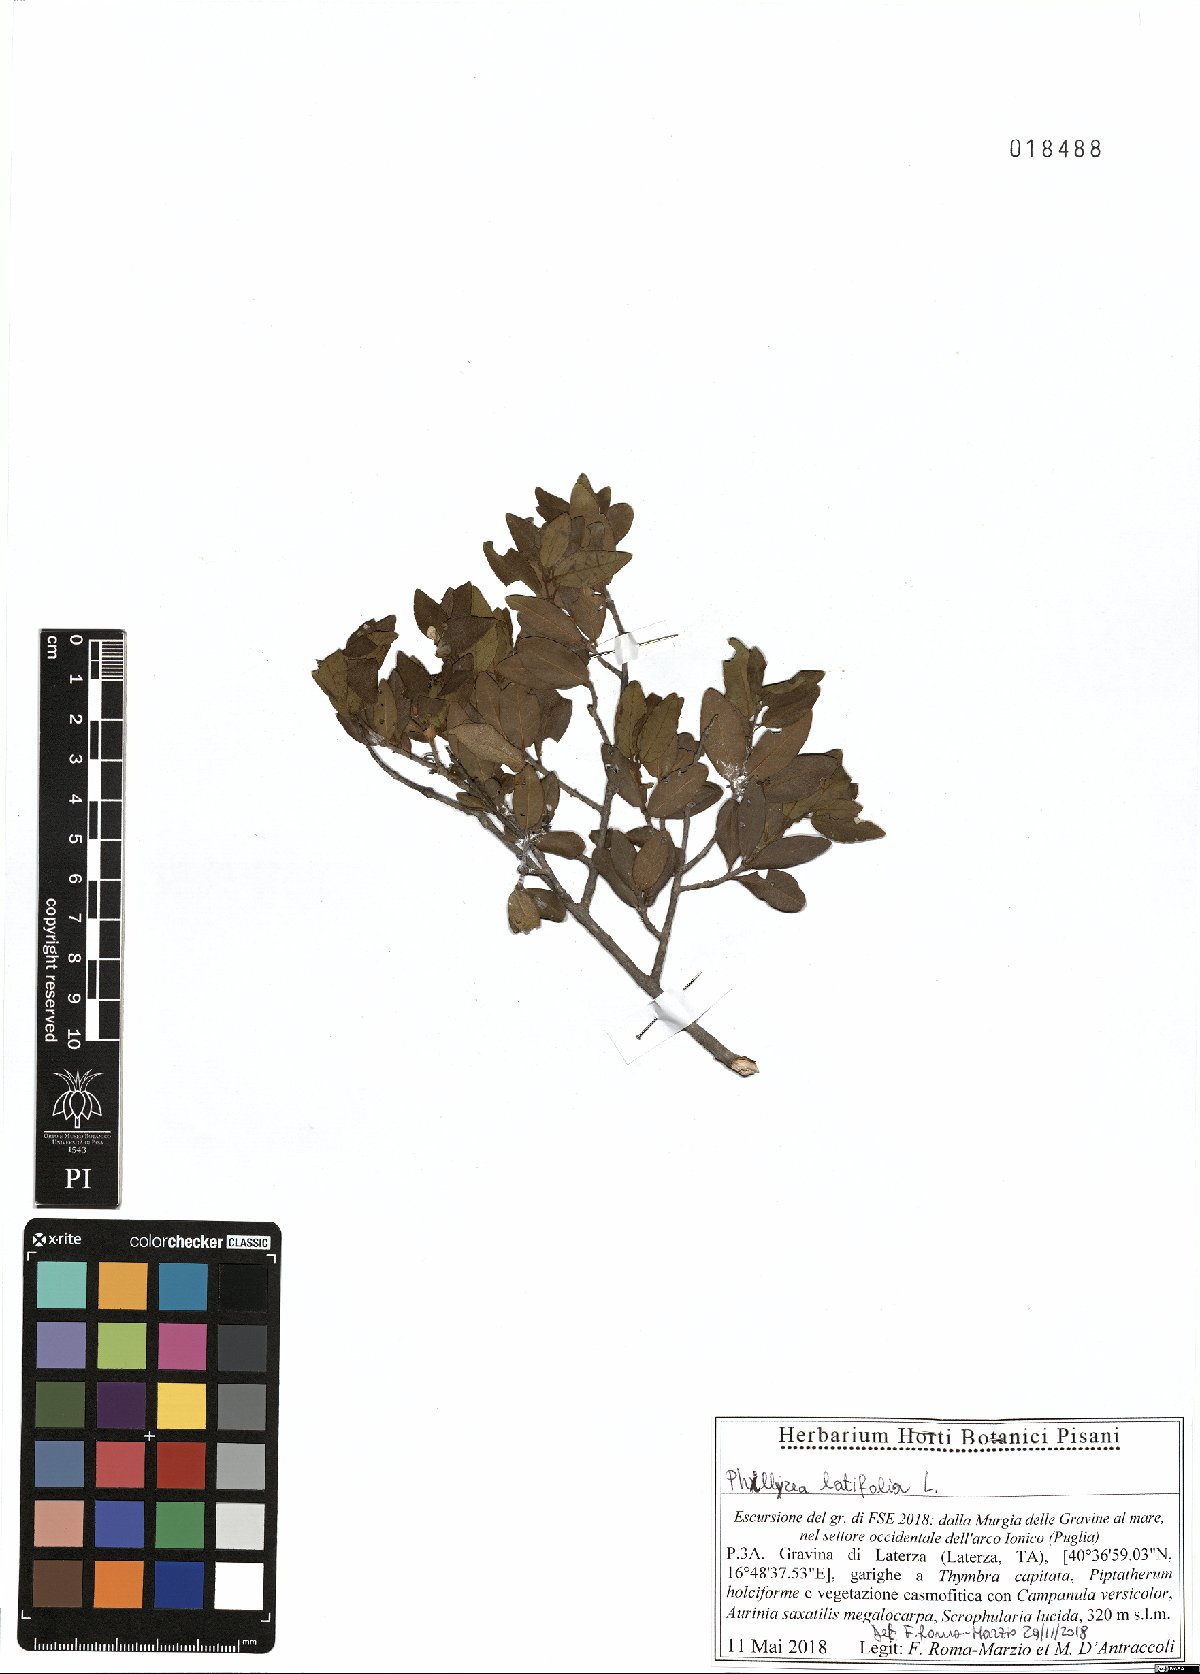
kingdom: Plantae
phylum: Tracheophyta
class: Magnoliopsida
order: Lamiales
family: Oleaceae
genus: Phillyrea
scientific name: Phillyrea latifolia
